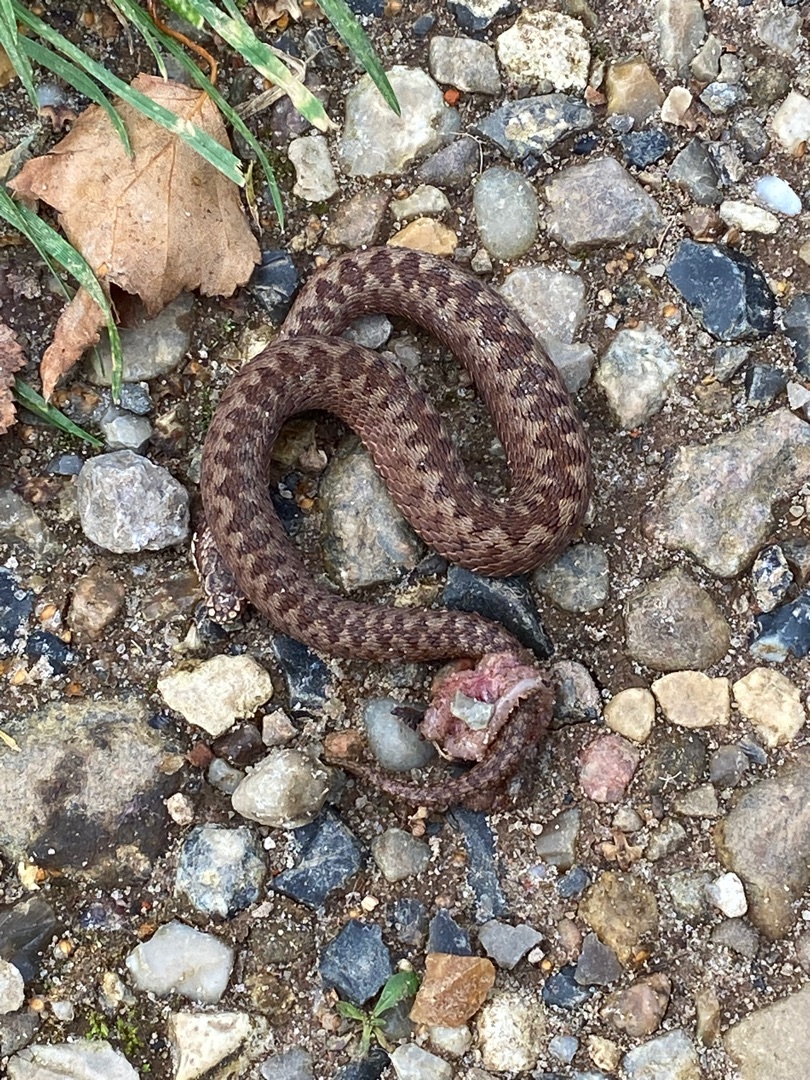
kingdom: Animalia
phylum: Chordata
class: Squamata
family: Viperidae
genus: Vipera
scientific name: Vipera berus
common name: Hugorm
